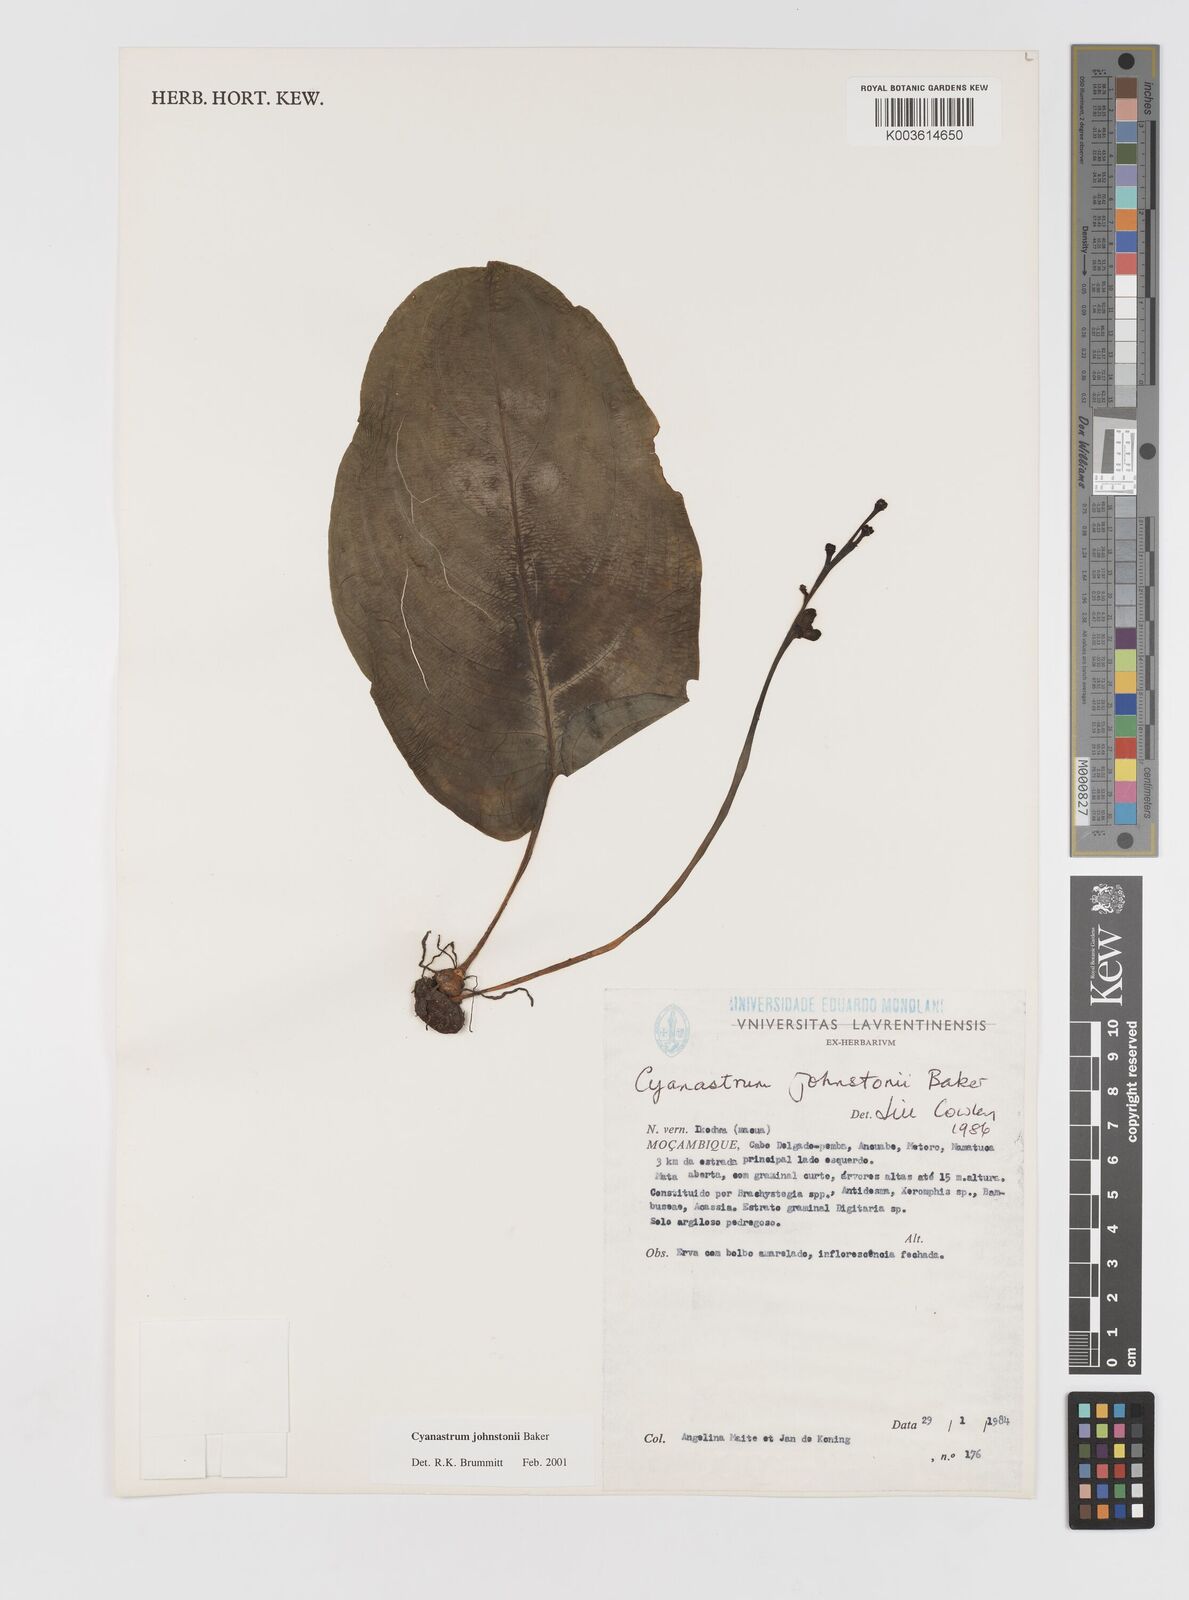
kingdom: Plantae
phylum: Tracheophyta
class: Liliopsida
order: Asparagales
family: Tecophilaeaceae
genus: Cyanastrum
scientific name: Cyanastrum johnstonii
